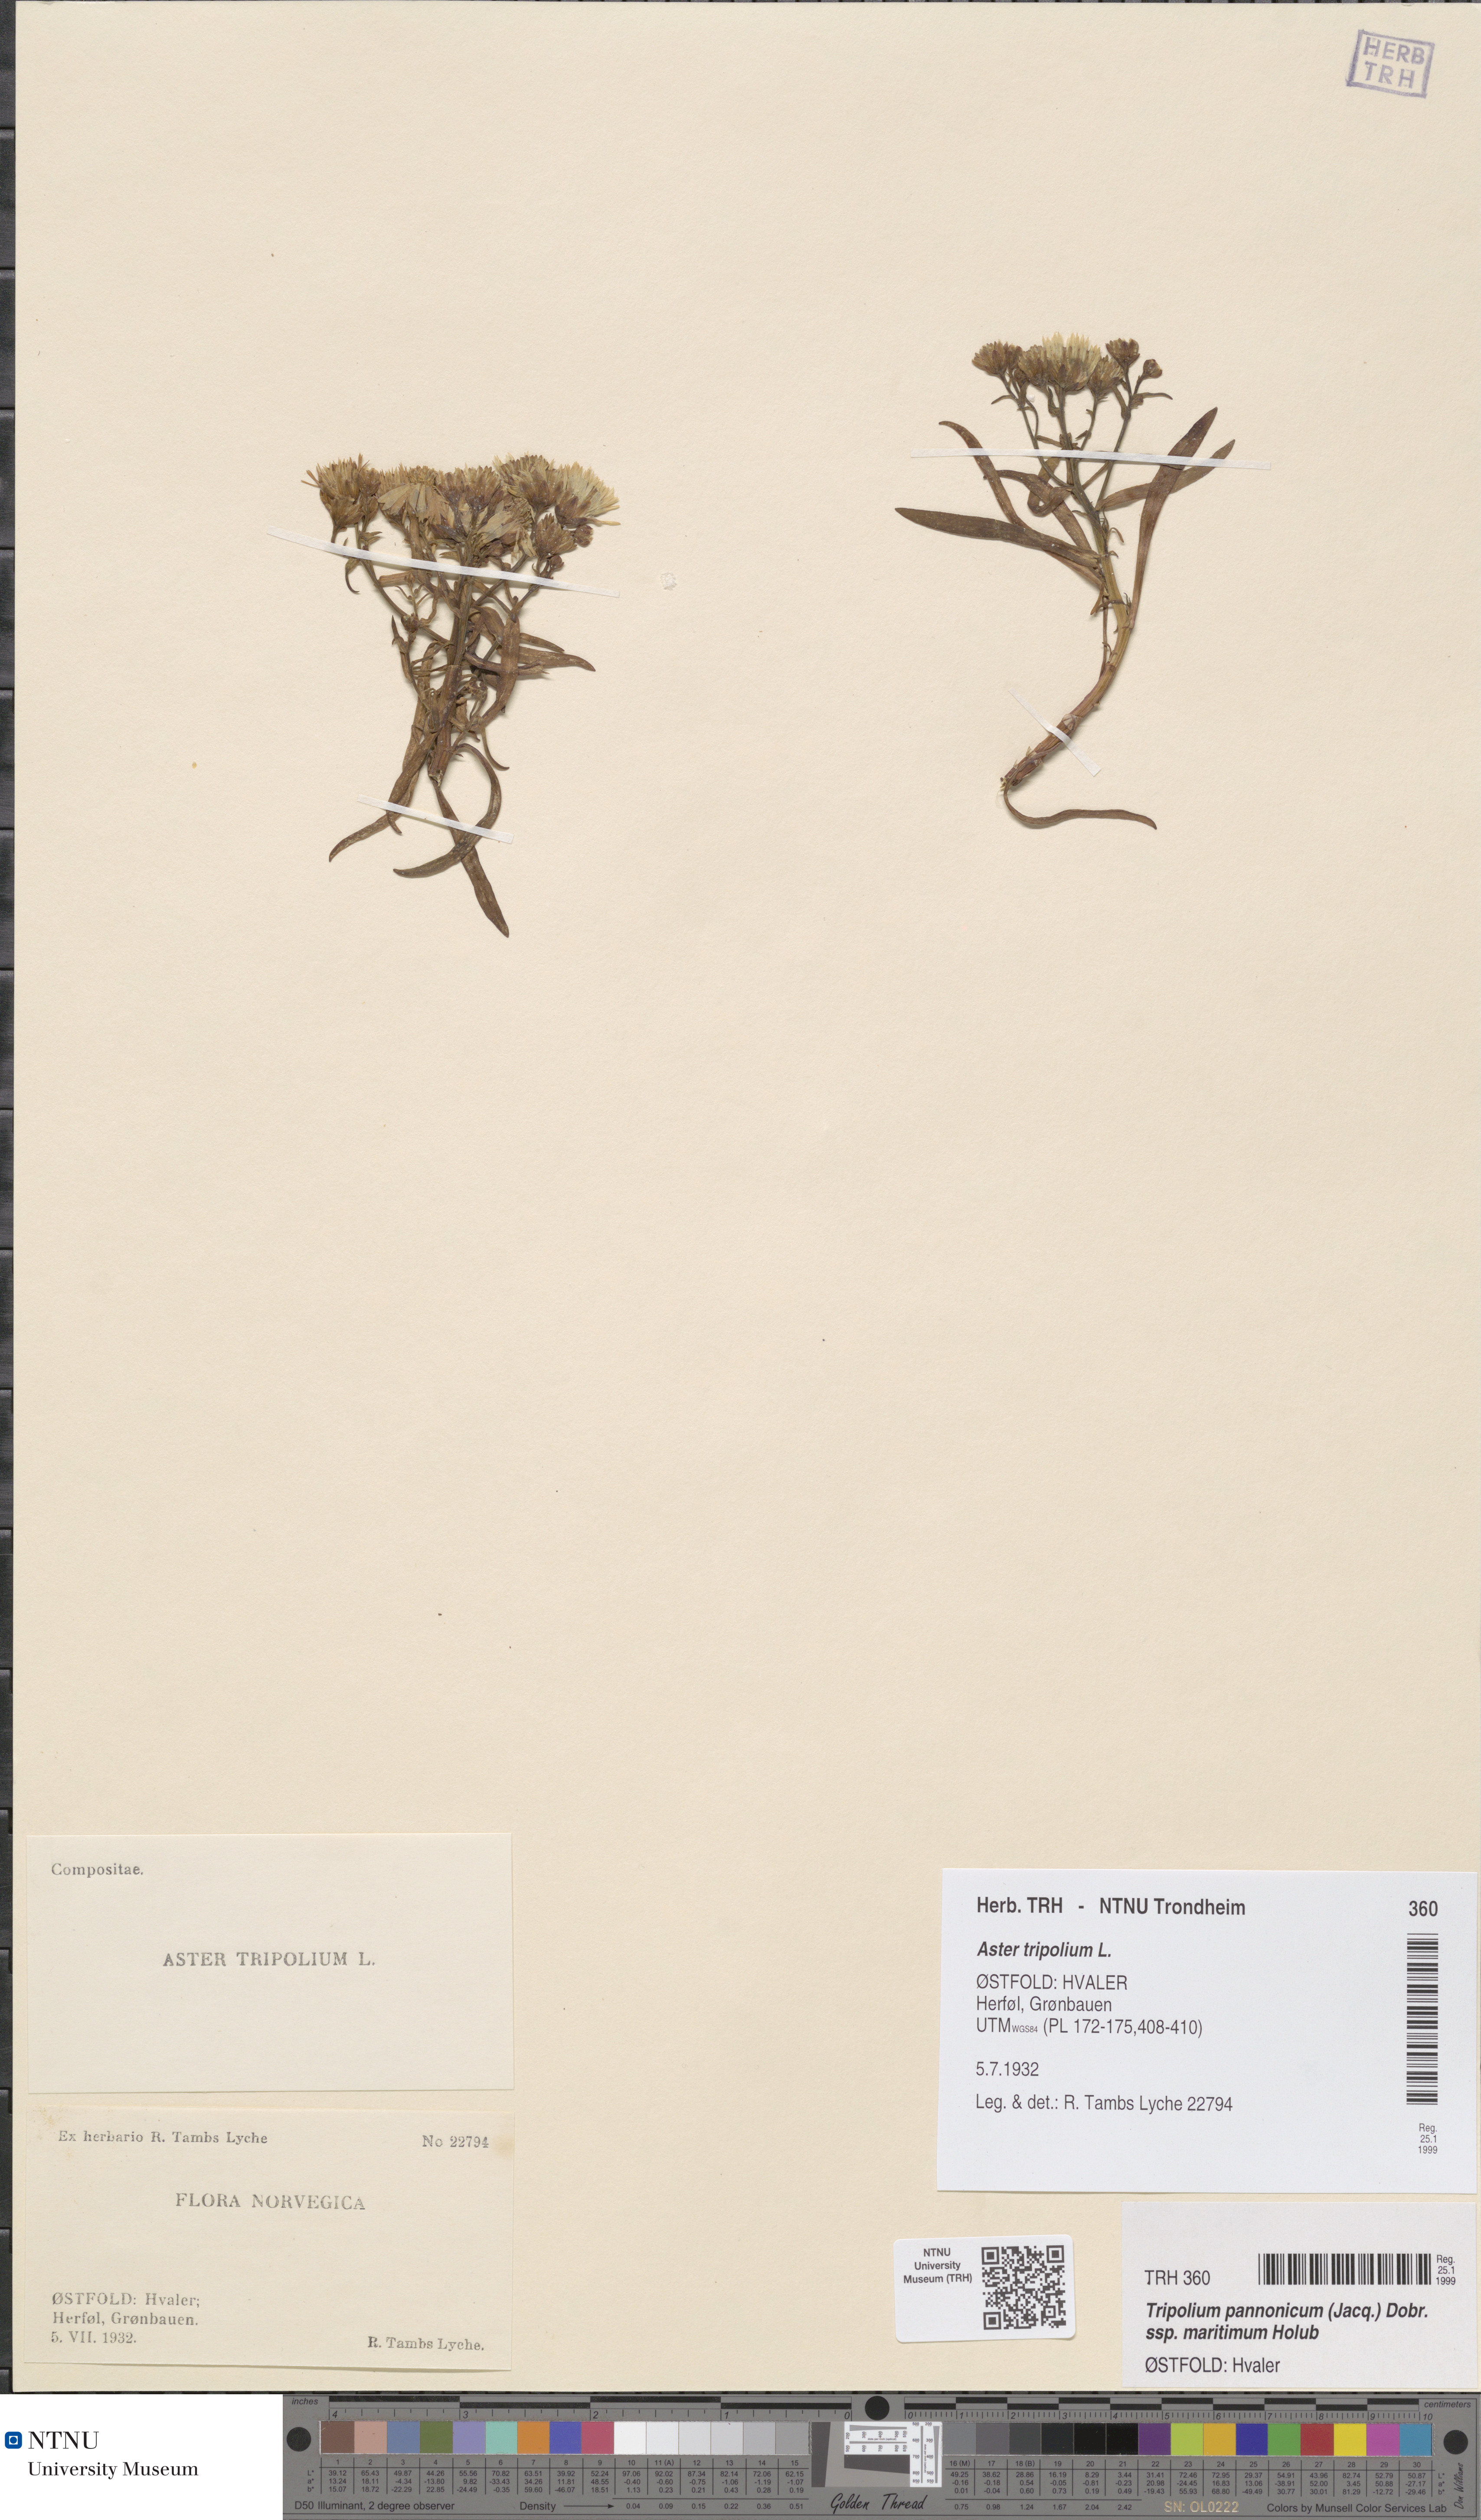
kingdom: Plantae
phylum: Tracheophyta
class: Magnoliopsida
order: Asterales
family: Asteraceae
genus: Tripolium
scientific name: Tripolium pannonicum
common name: Sea aster
